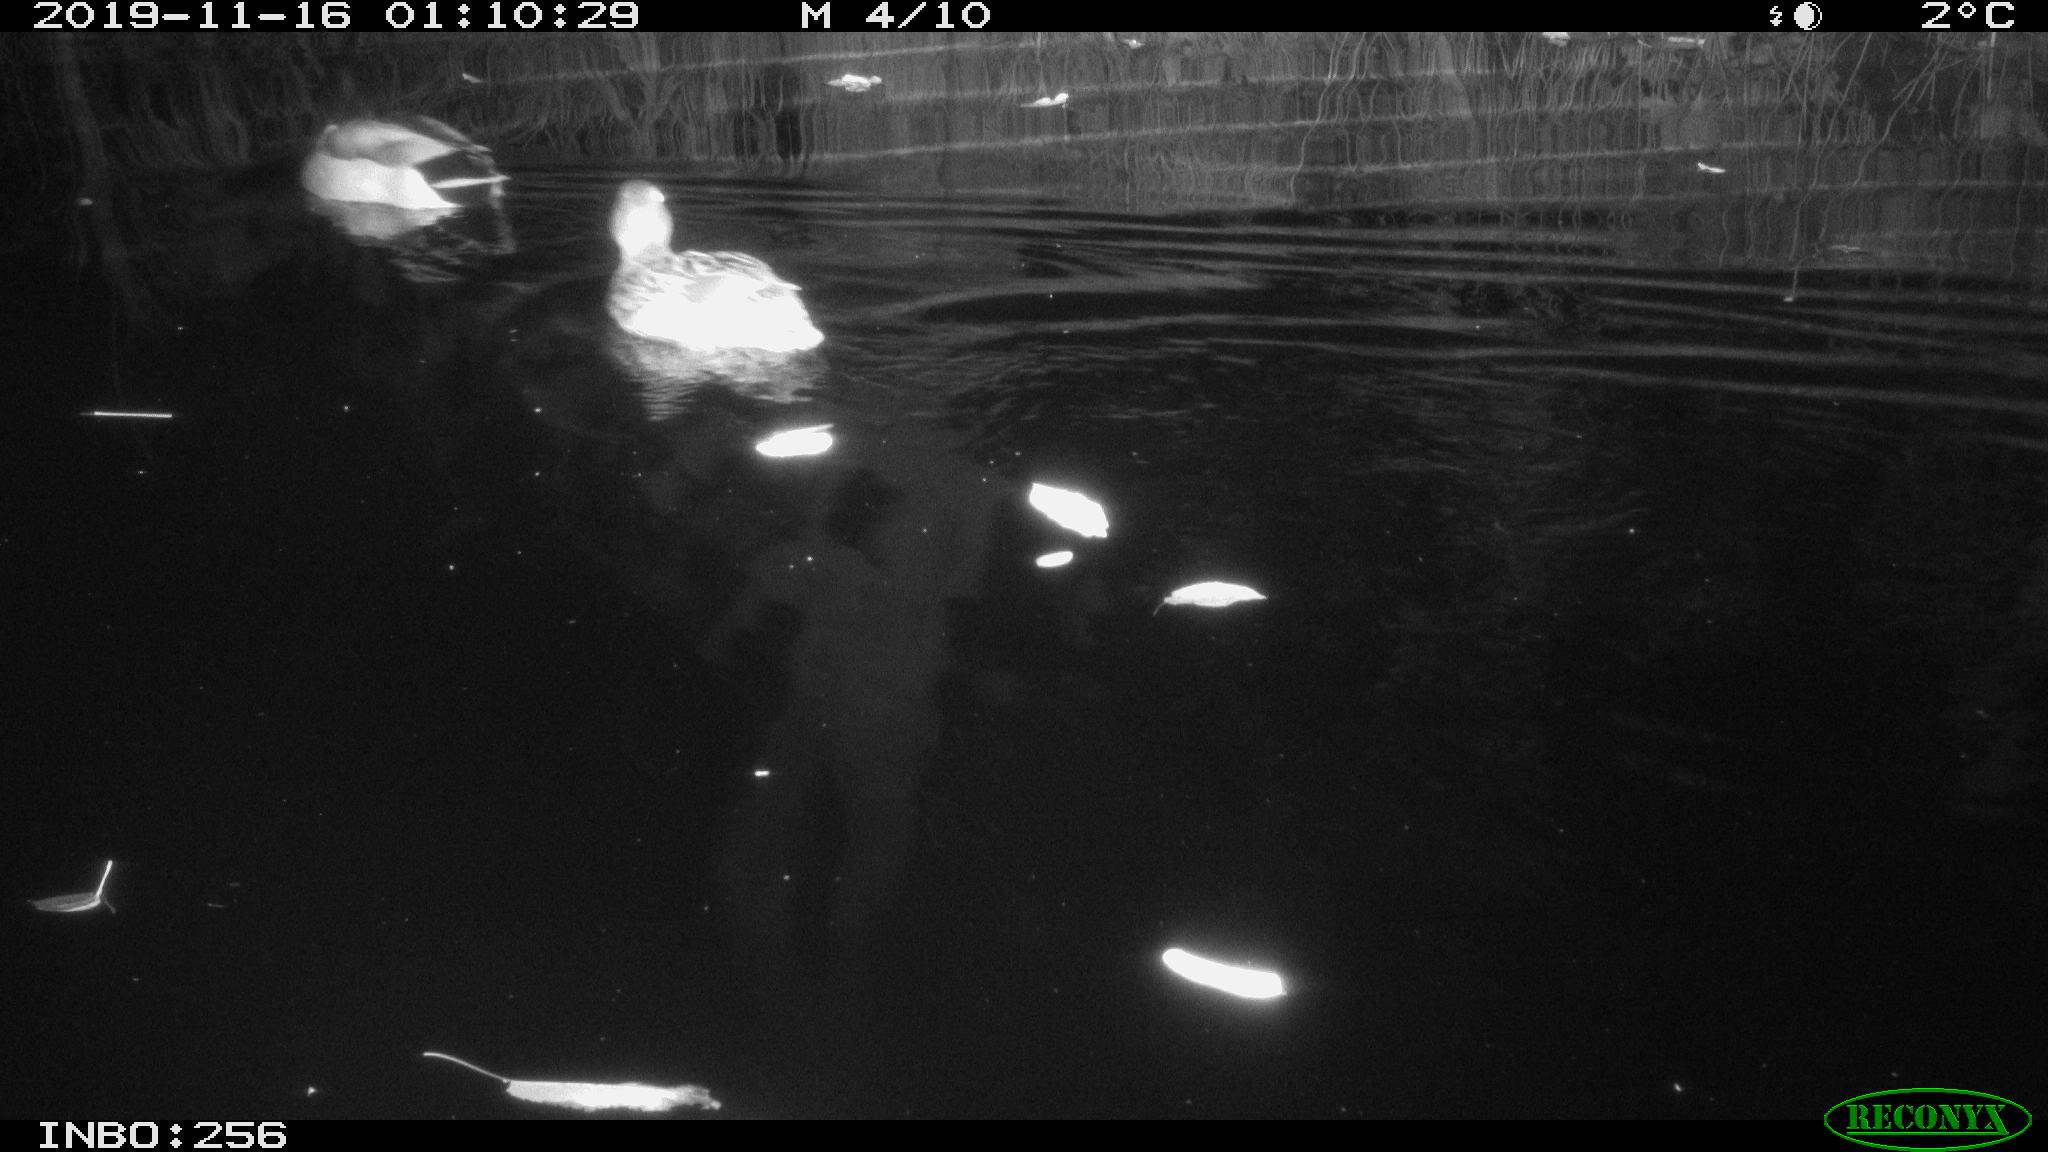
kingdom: Animalia
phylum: Chordata
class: Aves
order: Anseriformes
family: Anatidae
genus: Anas
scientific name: Anas platyrhynchos
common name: Mallard
